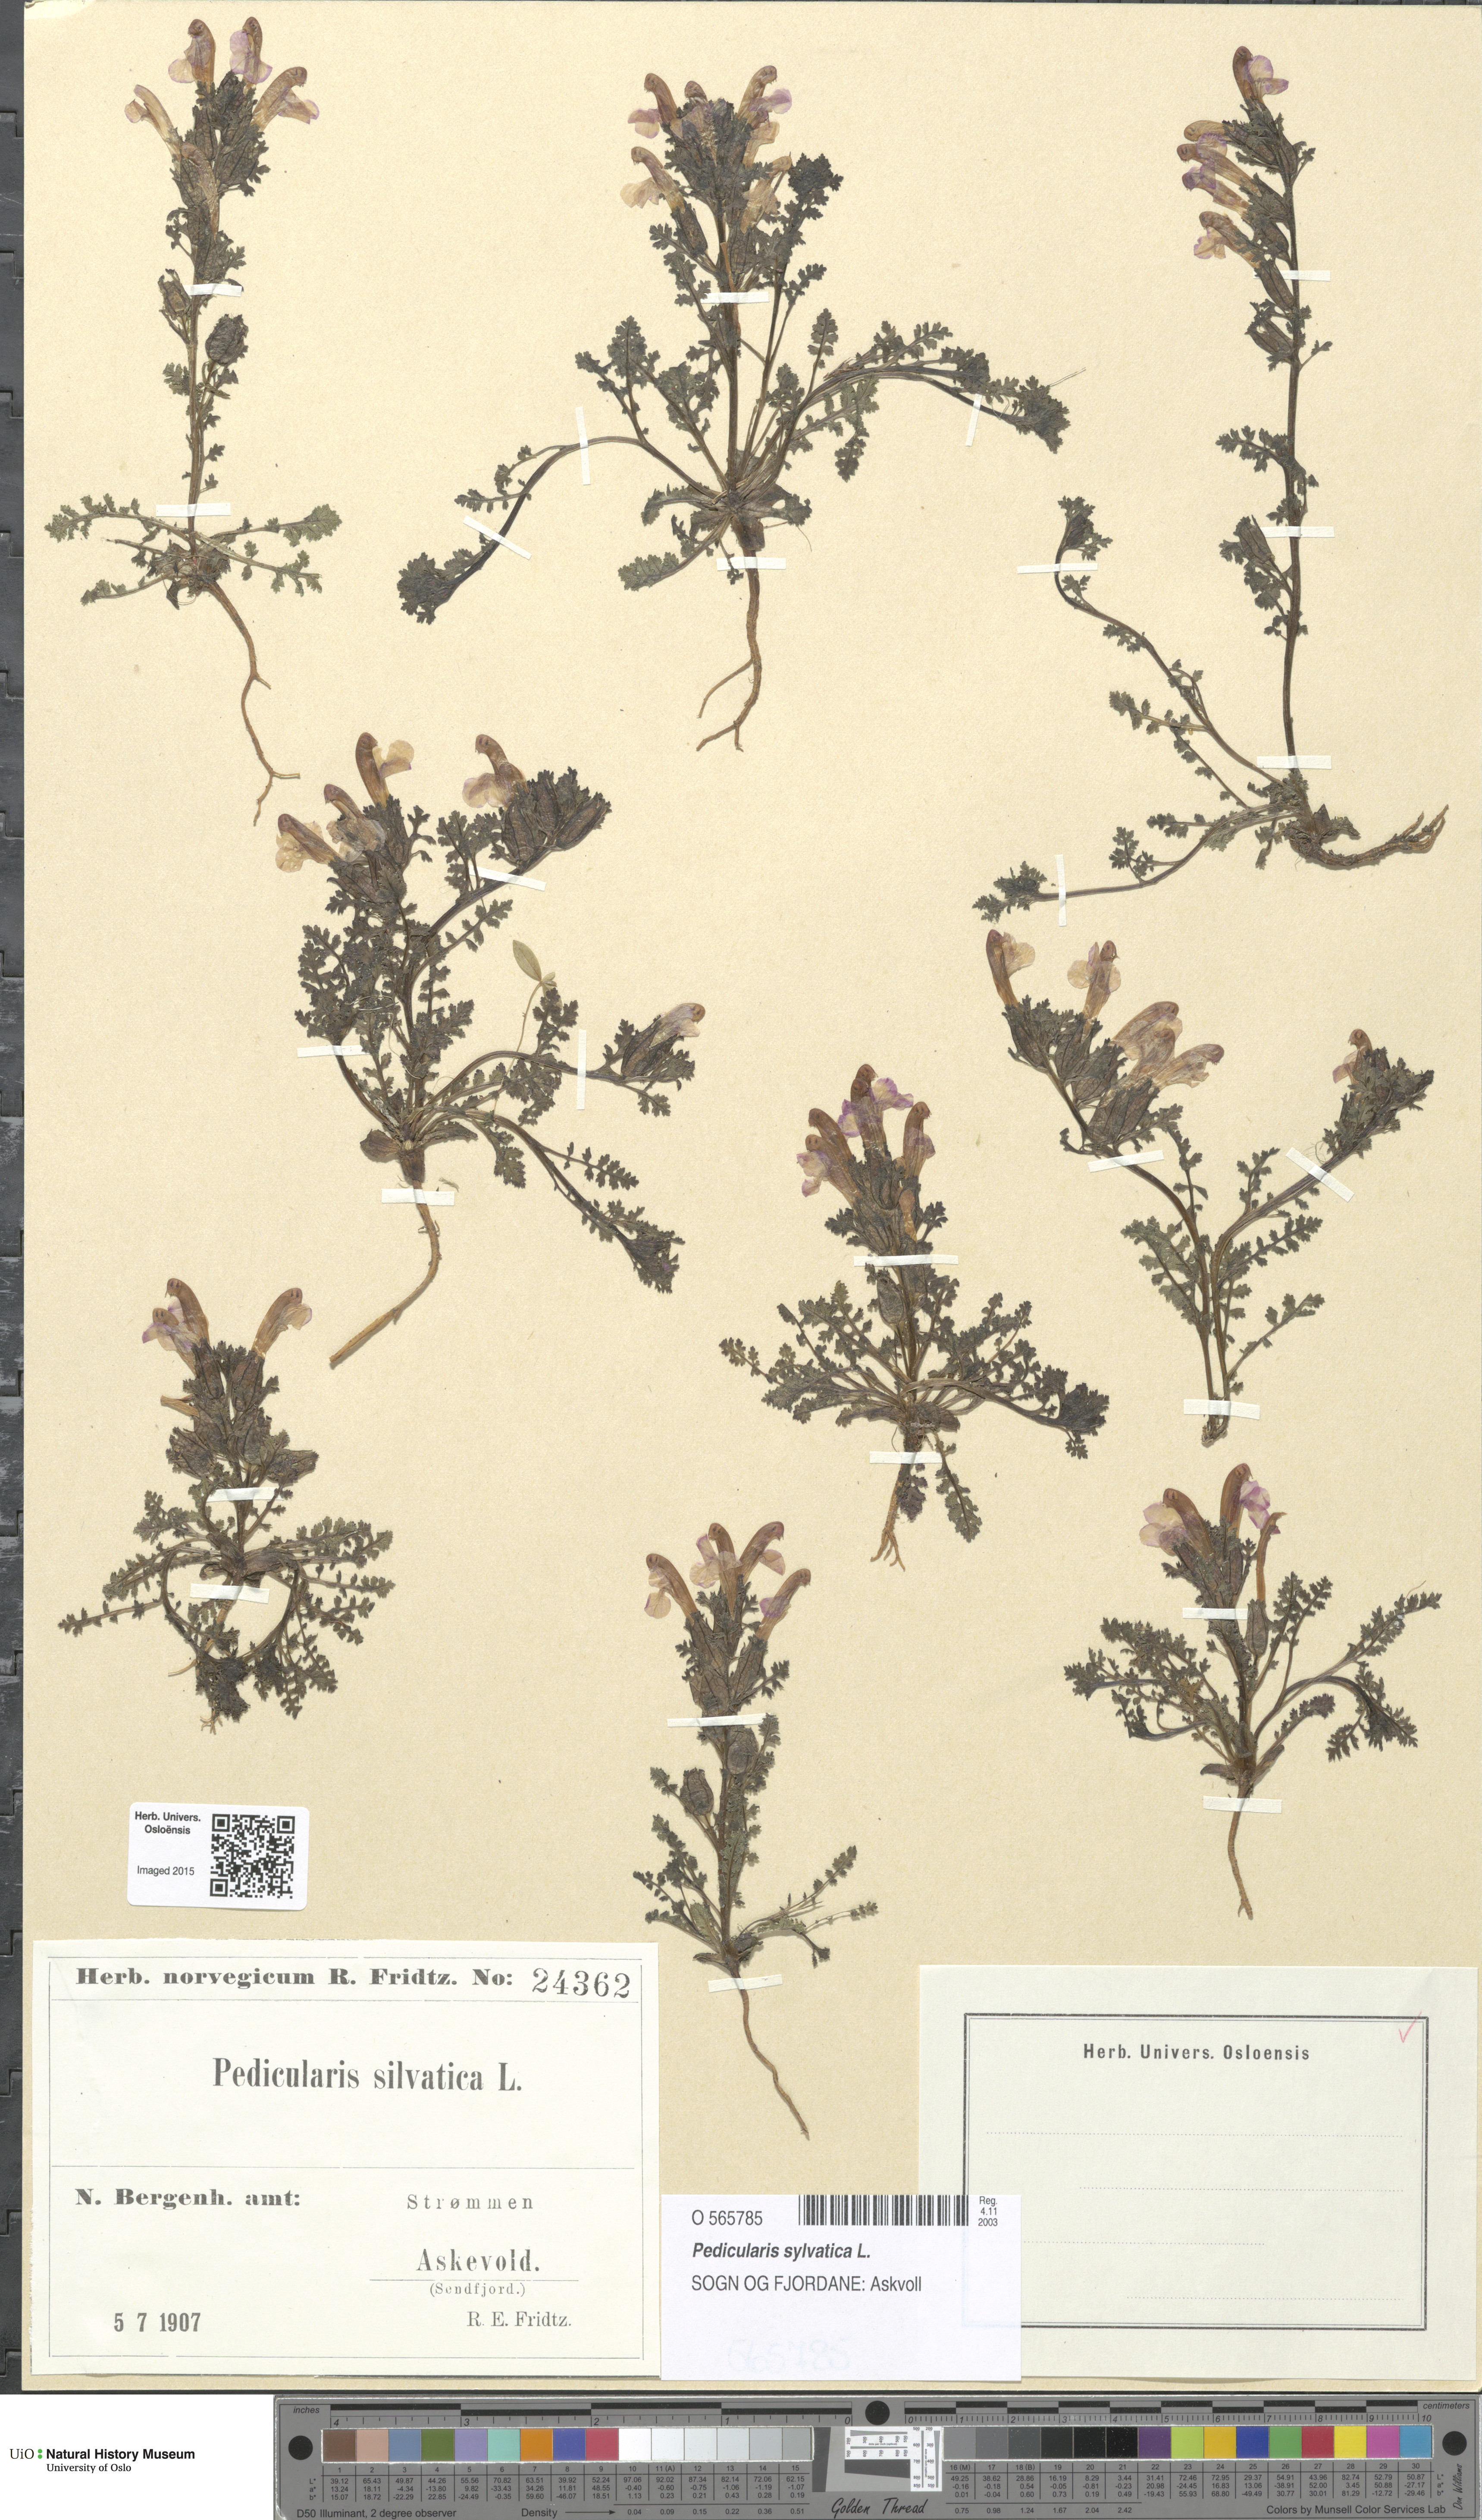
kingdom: Plantae
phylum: Tracheophyta
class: Magnoliopsida
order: Lamiales
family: Orobanchaceae
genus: Pedicularis
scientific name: Pedicularis sylvatica
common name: Lousewort
